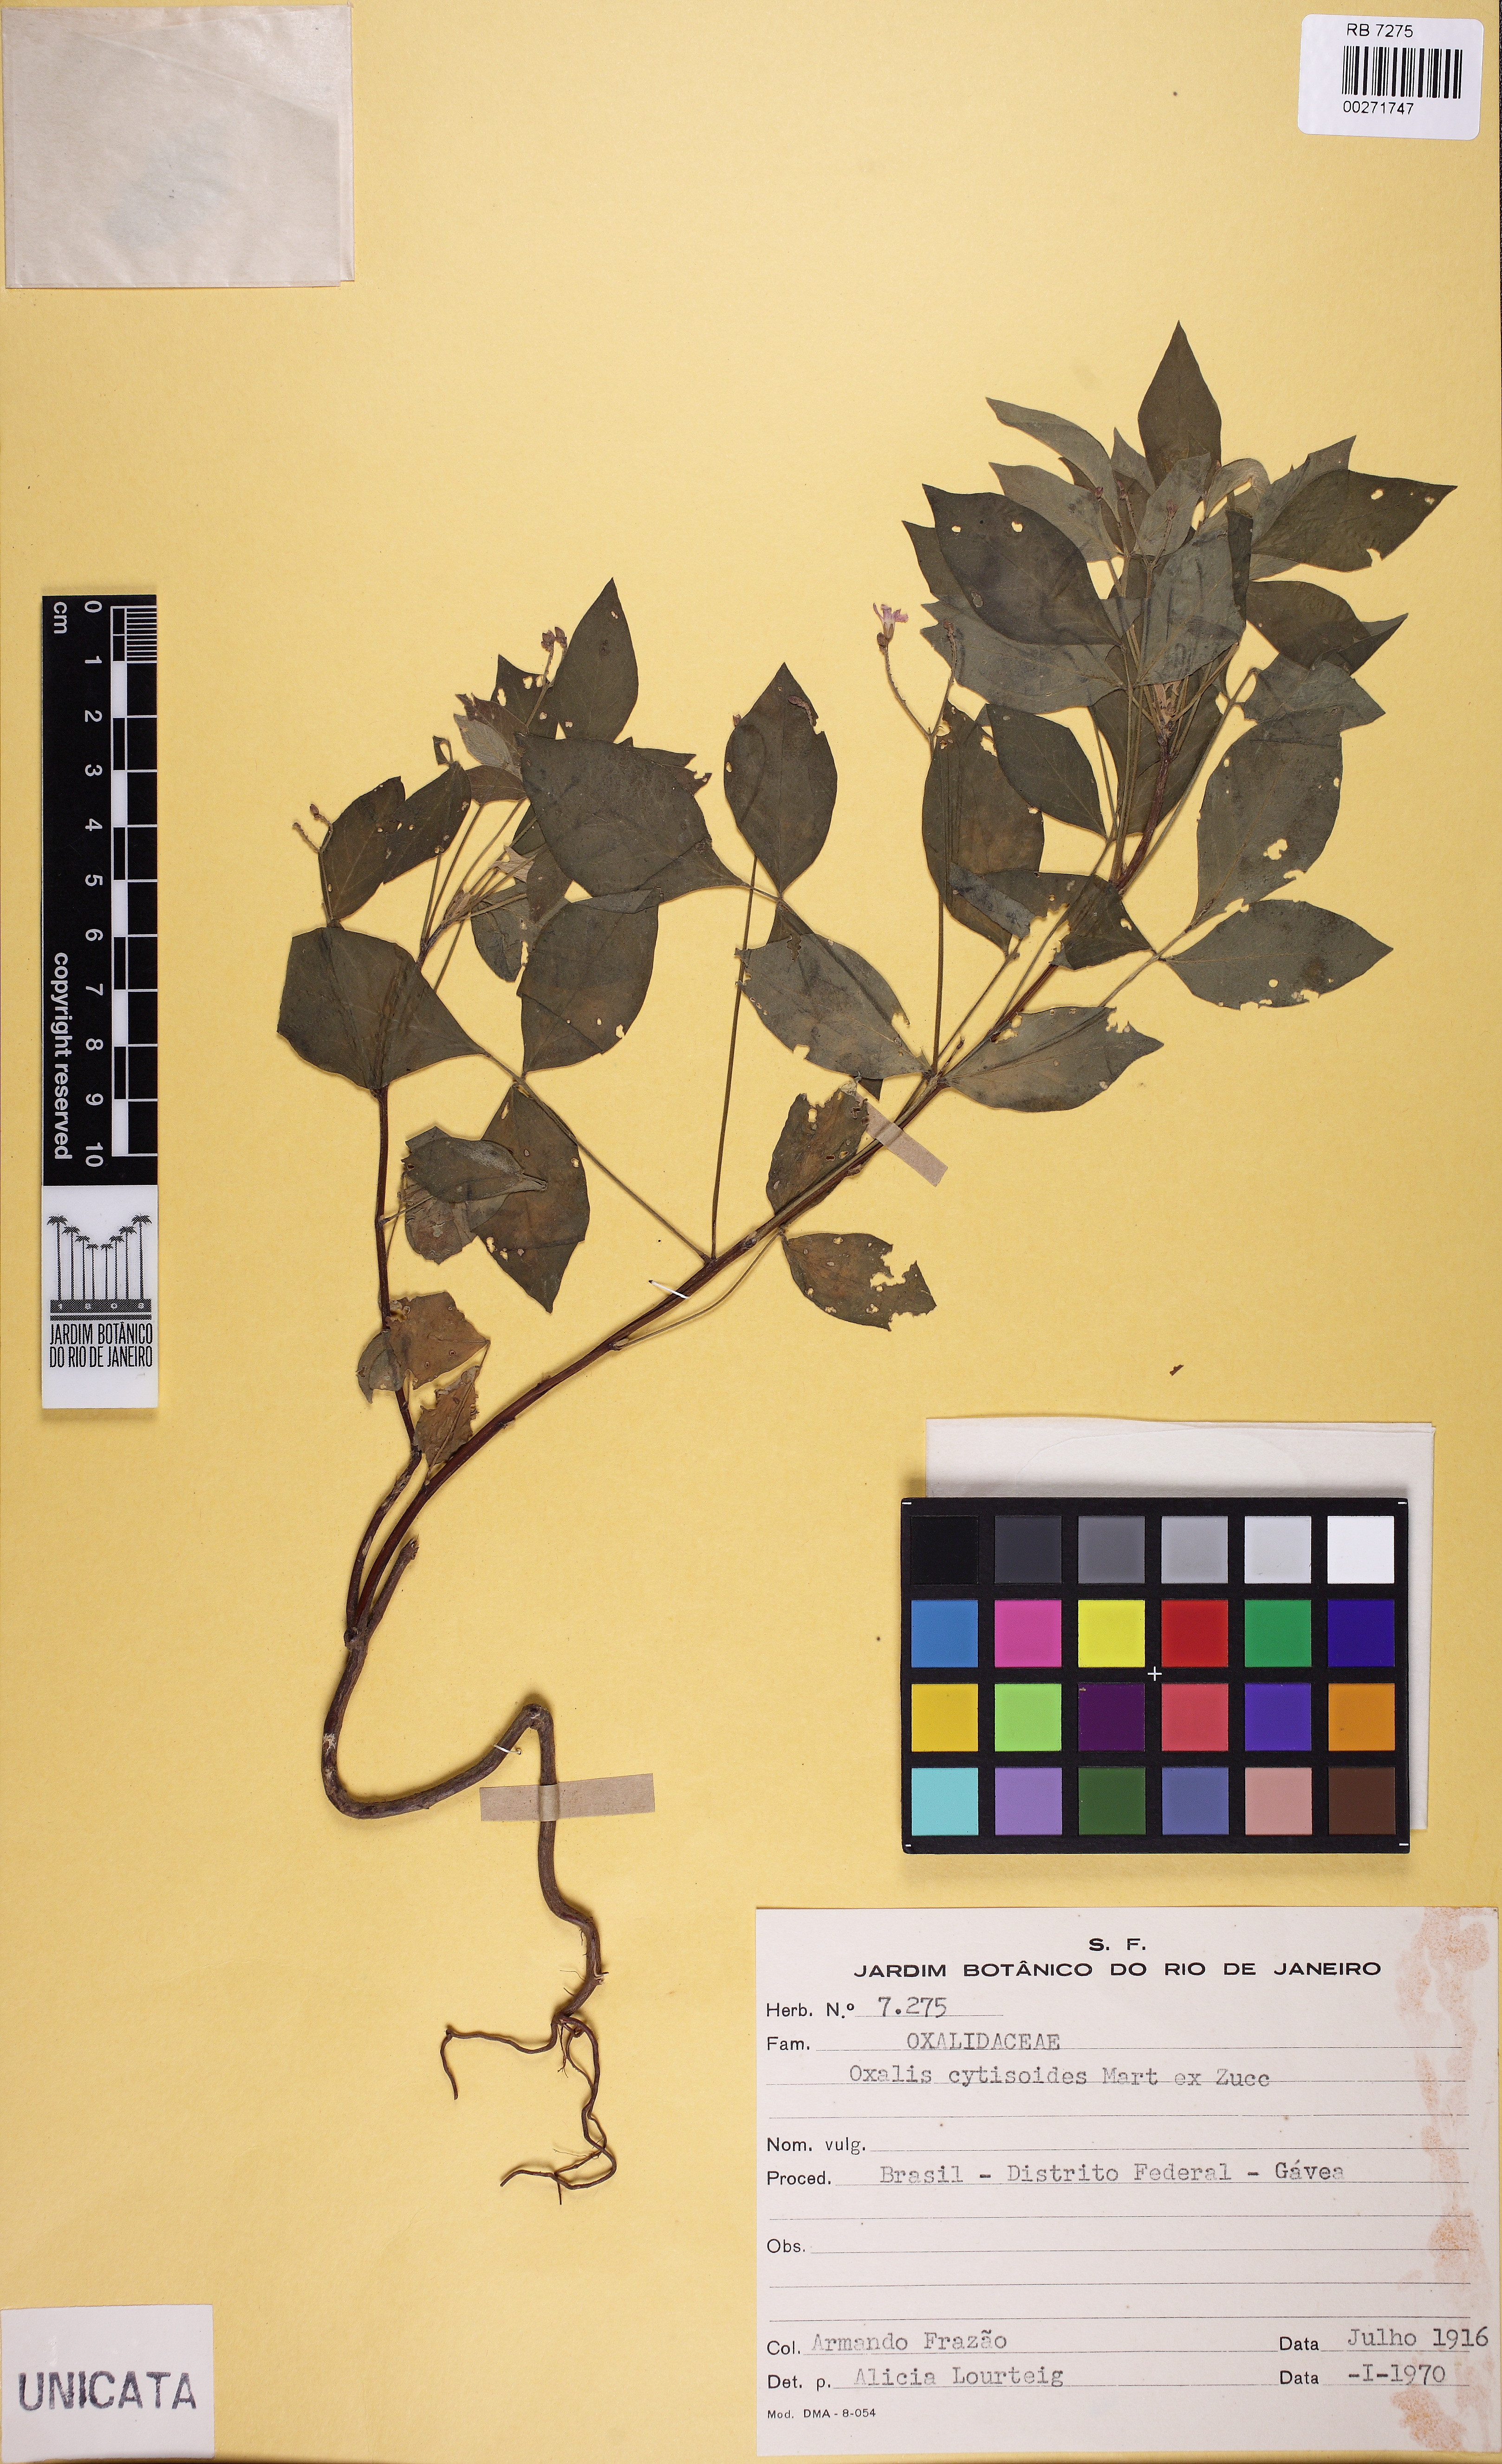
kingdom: Plantae
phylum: Tracheophyta
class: Magnoliopsida
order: Oxalidales
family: Oxalidaceae
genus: Oxalis
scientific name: Oxalis cytisoides
